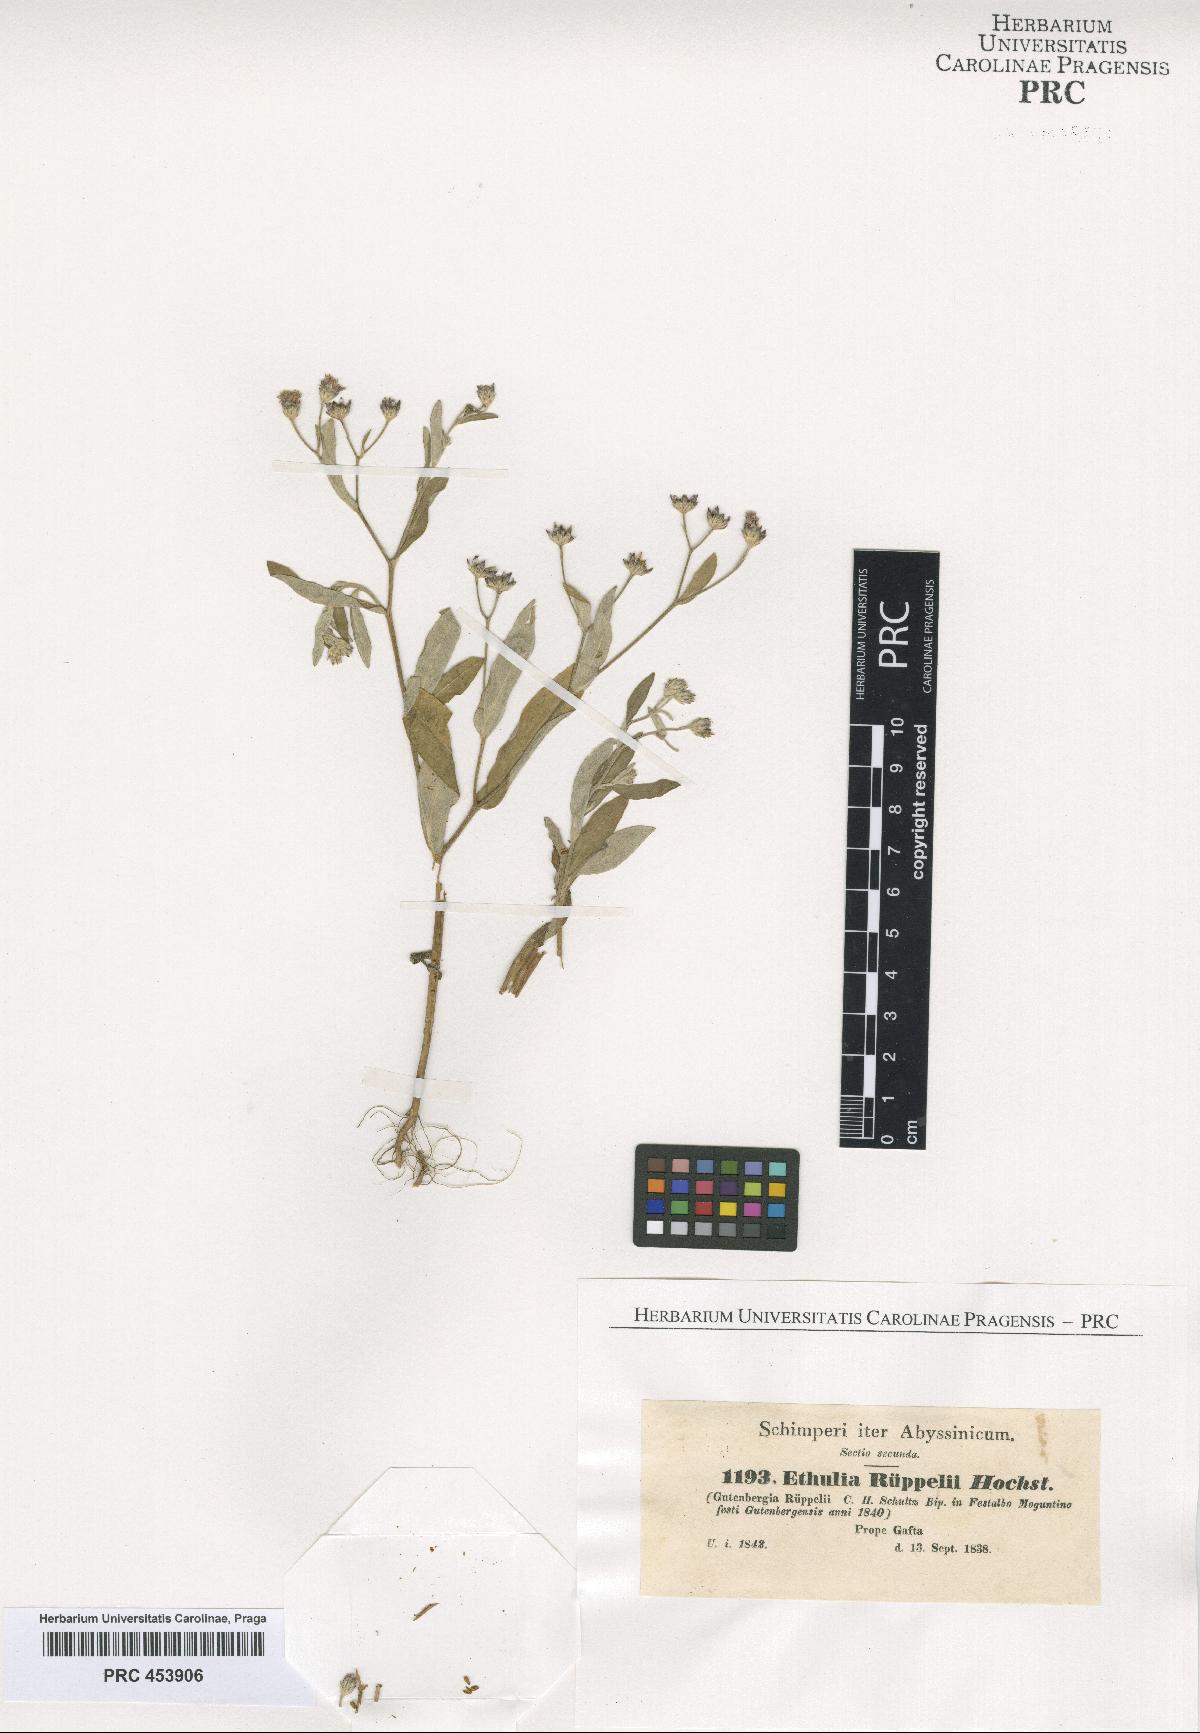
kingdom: Plantae
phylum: Tracheophyta
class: Magnoliopsida
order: Asterales
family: Asteraceae
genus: Gutenbergia
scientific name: Gutenbergia rueppellii
